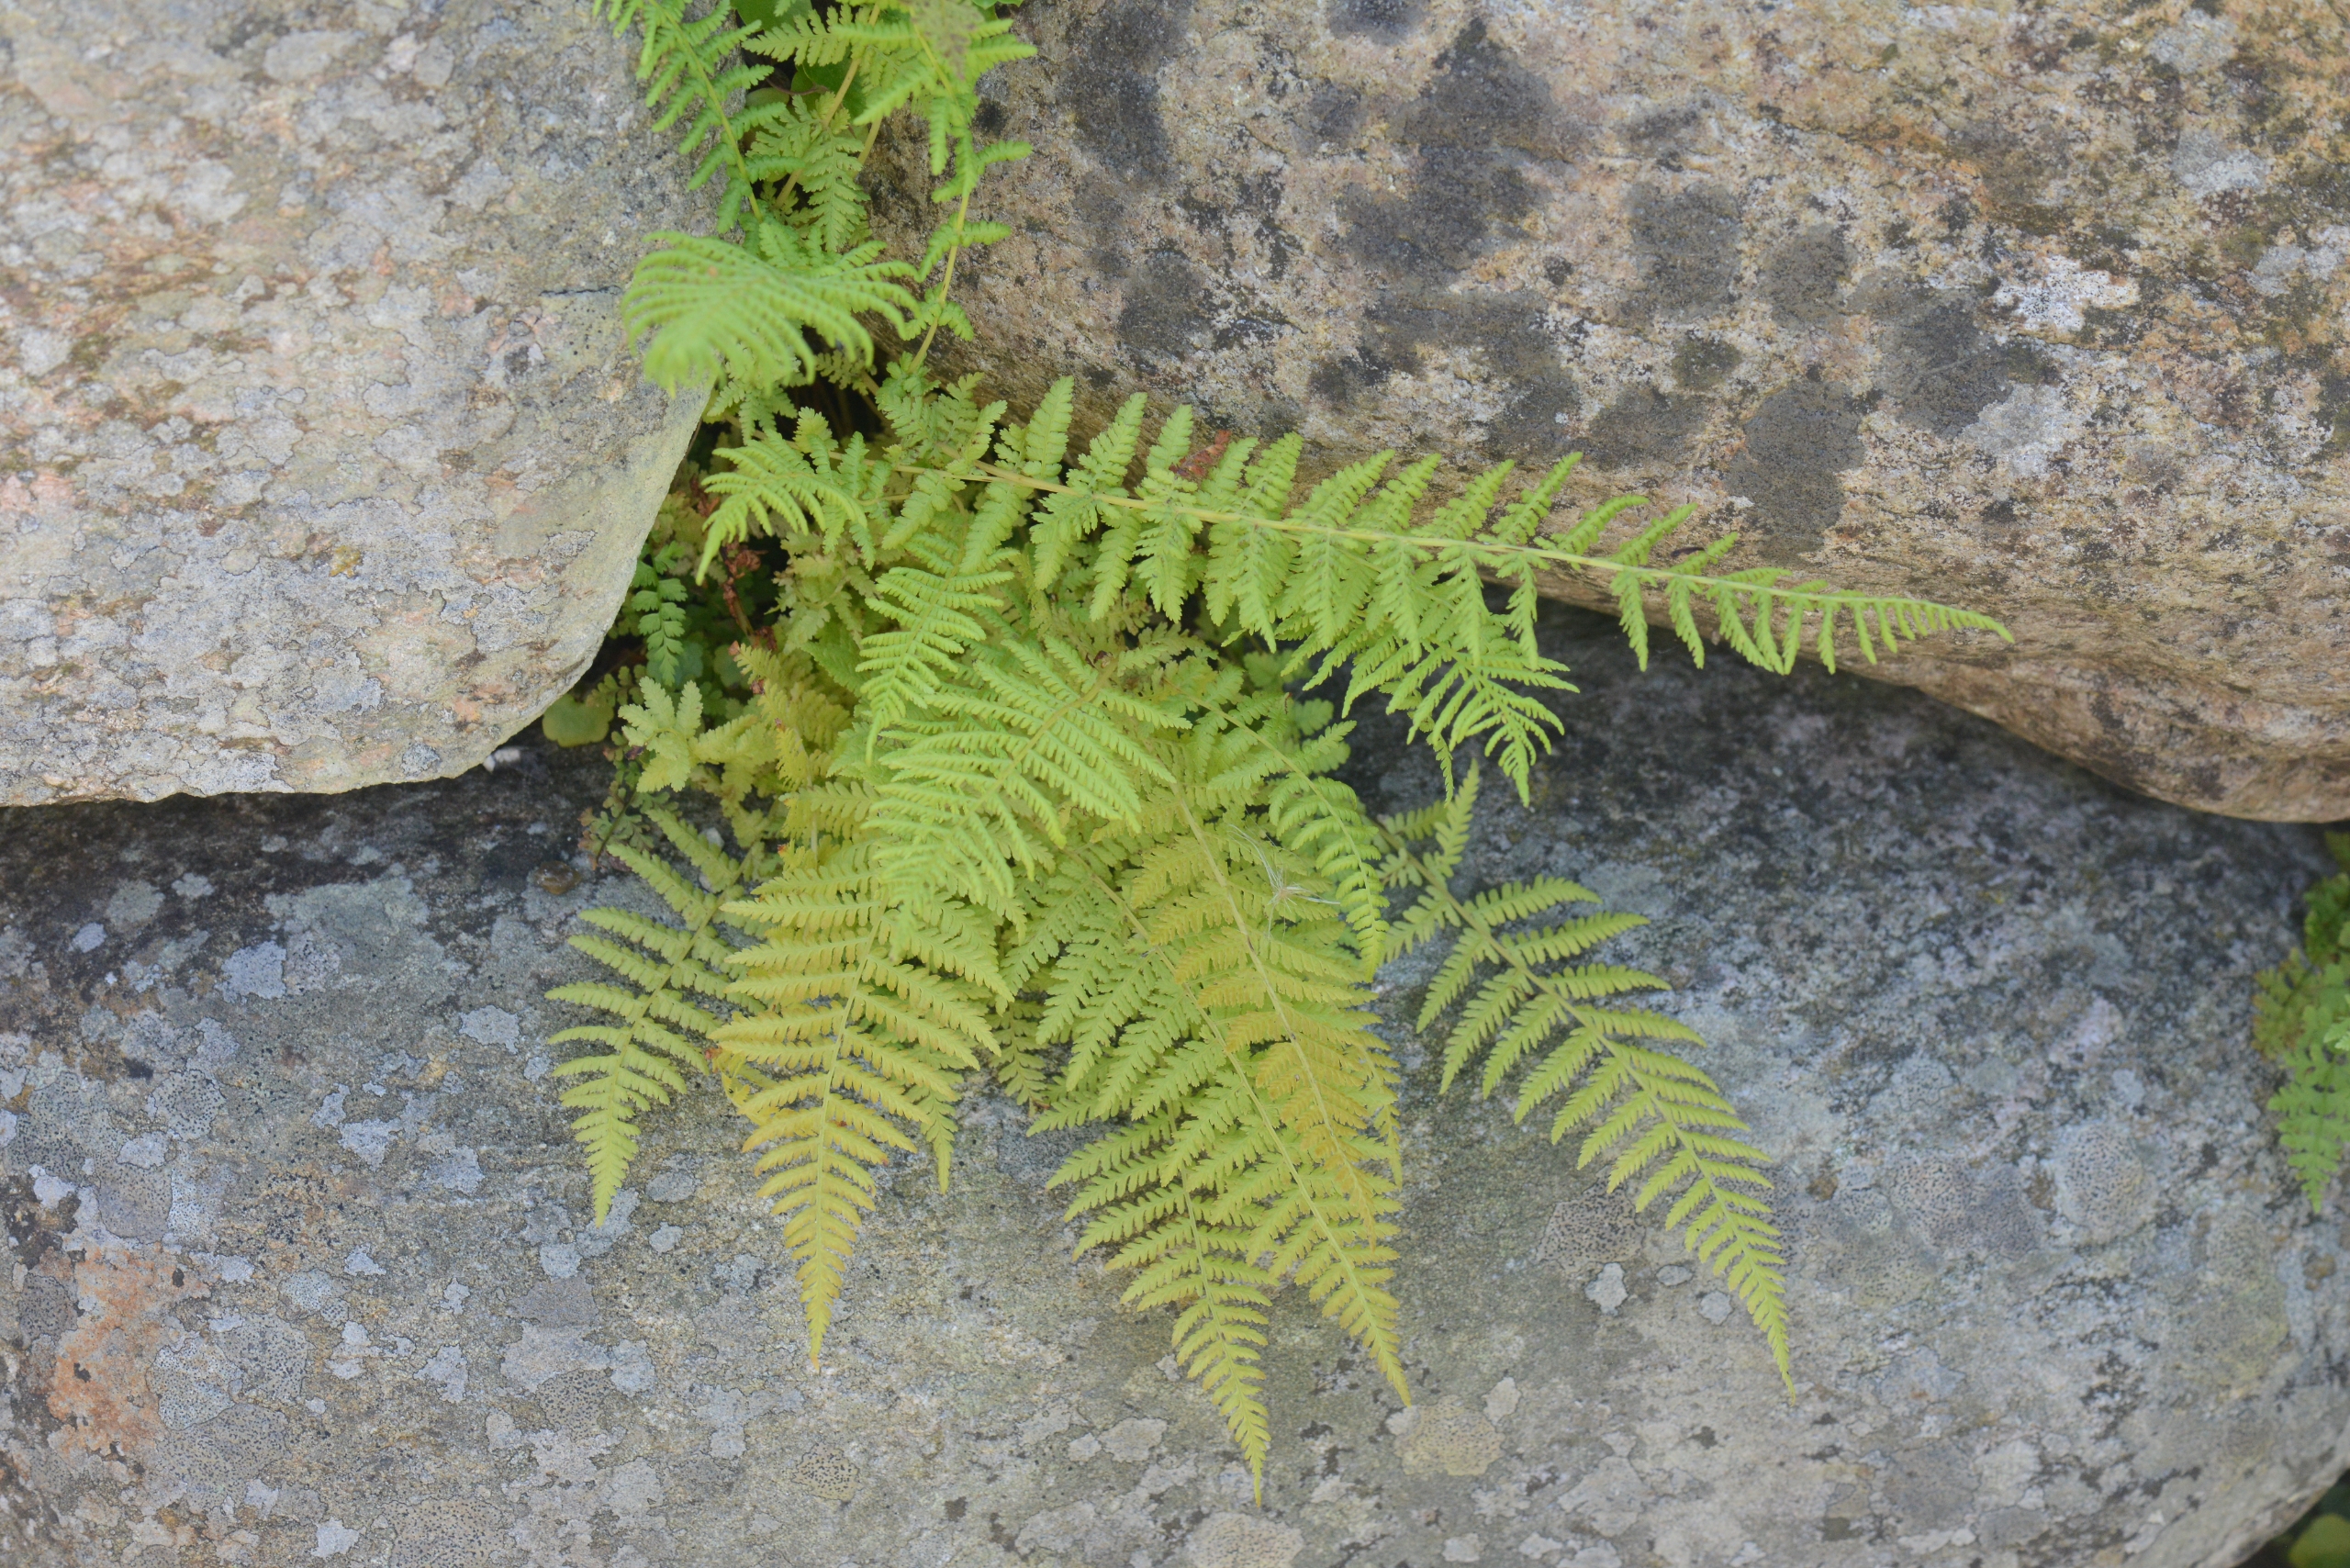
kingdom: Plantae
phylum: Tracheophyta
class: Polypodiopsida
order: Polypodiales
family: Athyriaceae
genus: Athyrium
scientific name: Athyrium filix-femina
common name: Fjerbregne
